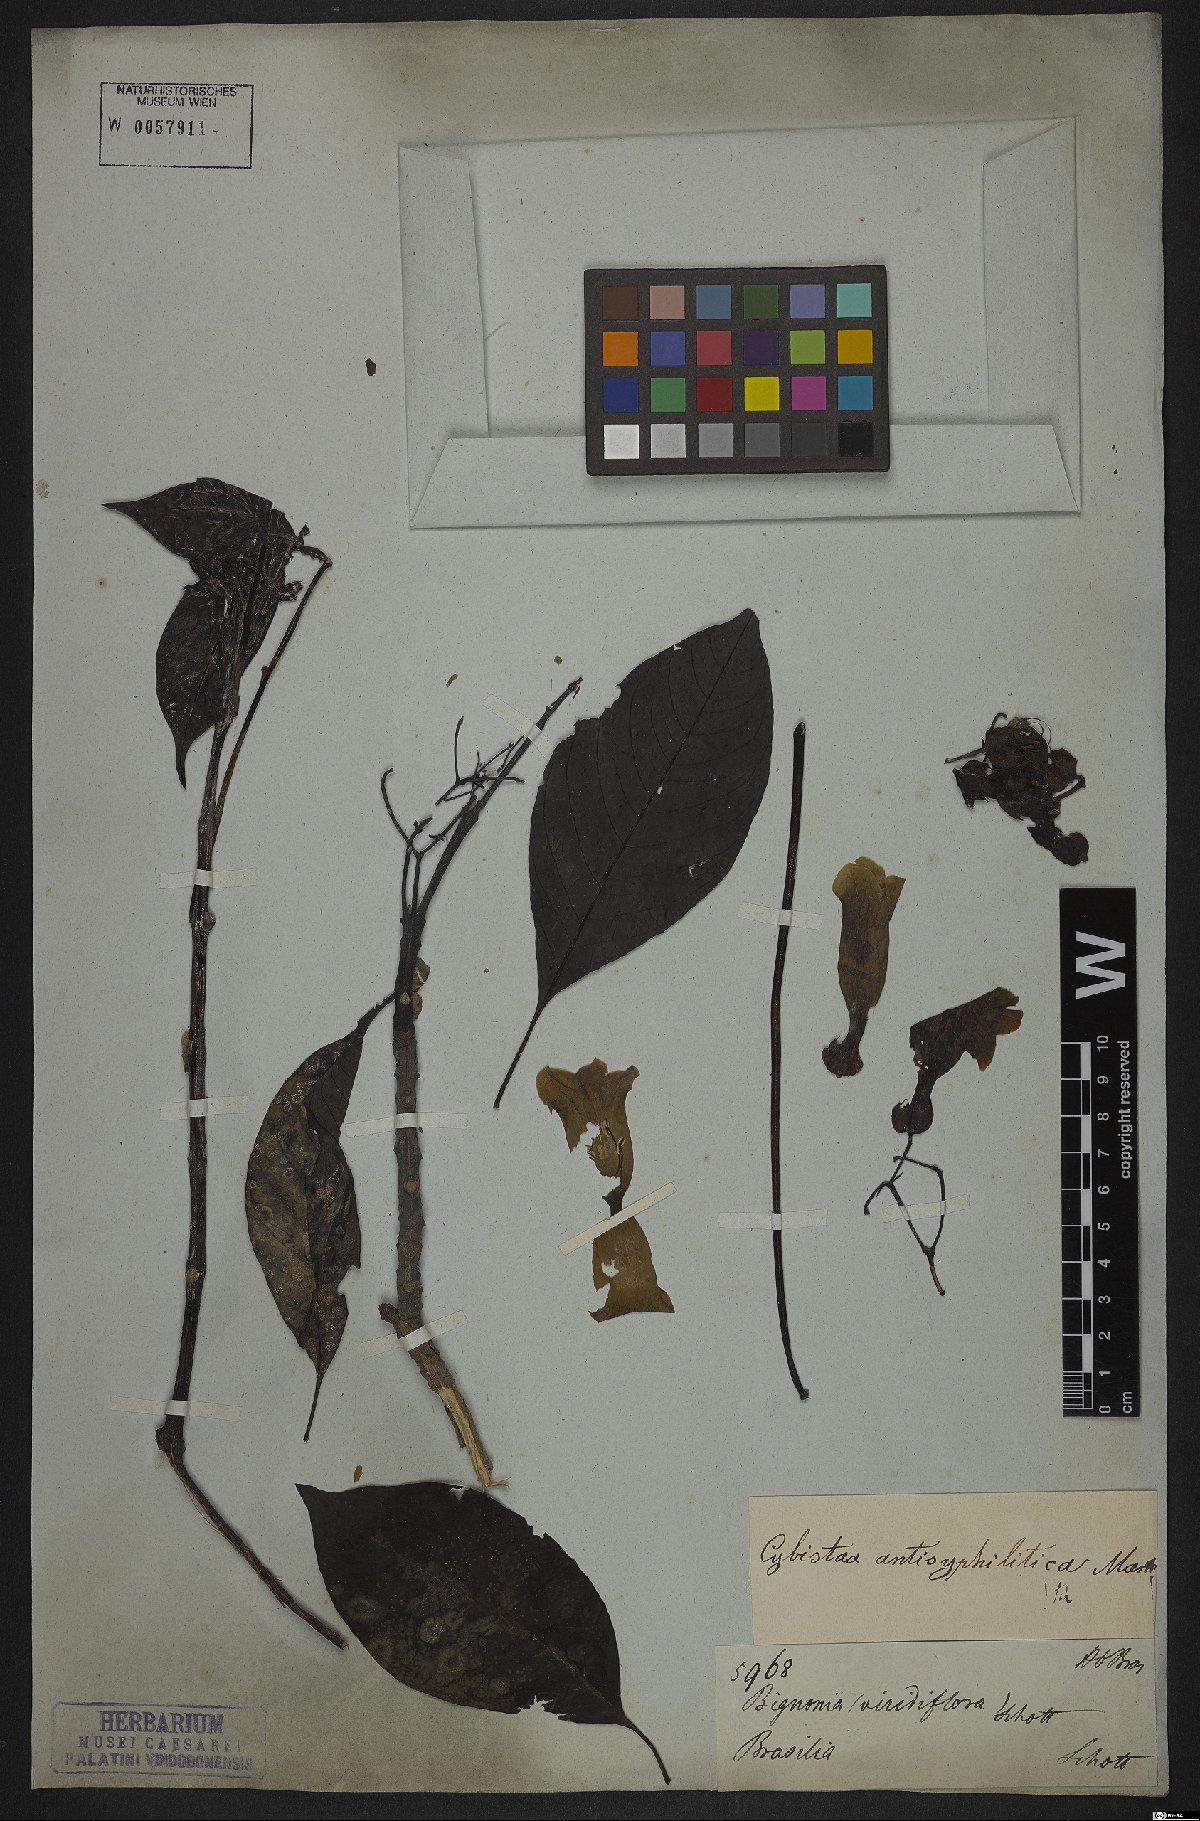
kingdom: Plantae
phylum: Tracheophyta
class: Magnoliopsida
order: Lamiales
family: Bignoniaceae
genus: Cybistax
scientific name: Cybistax antisyphilitica
